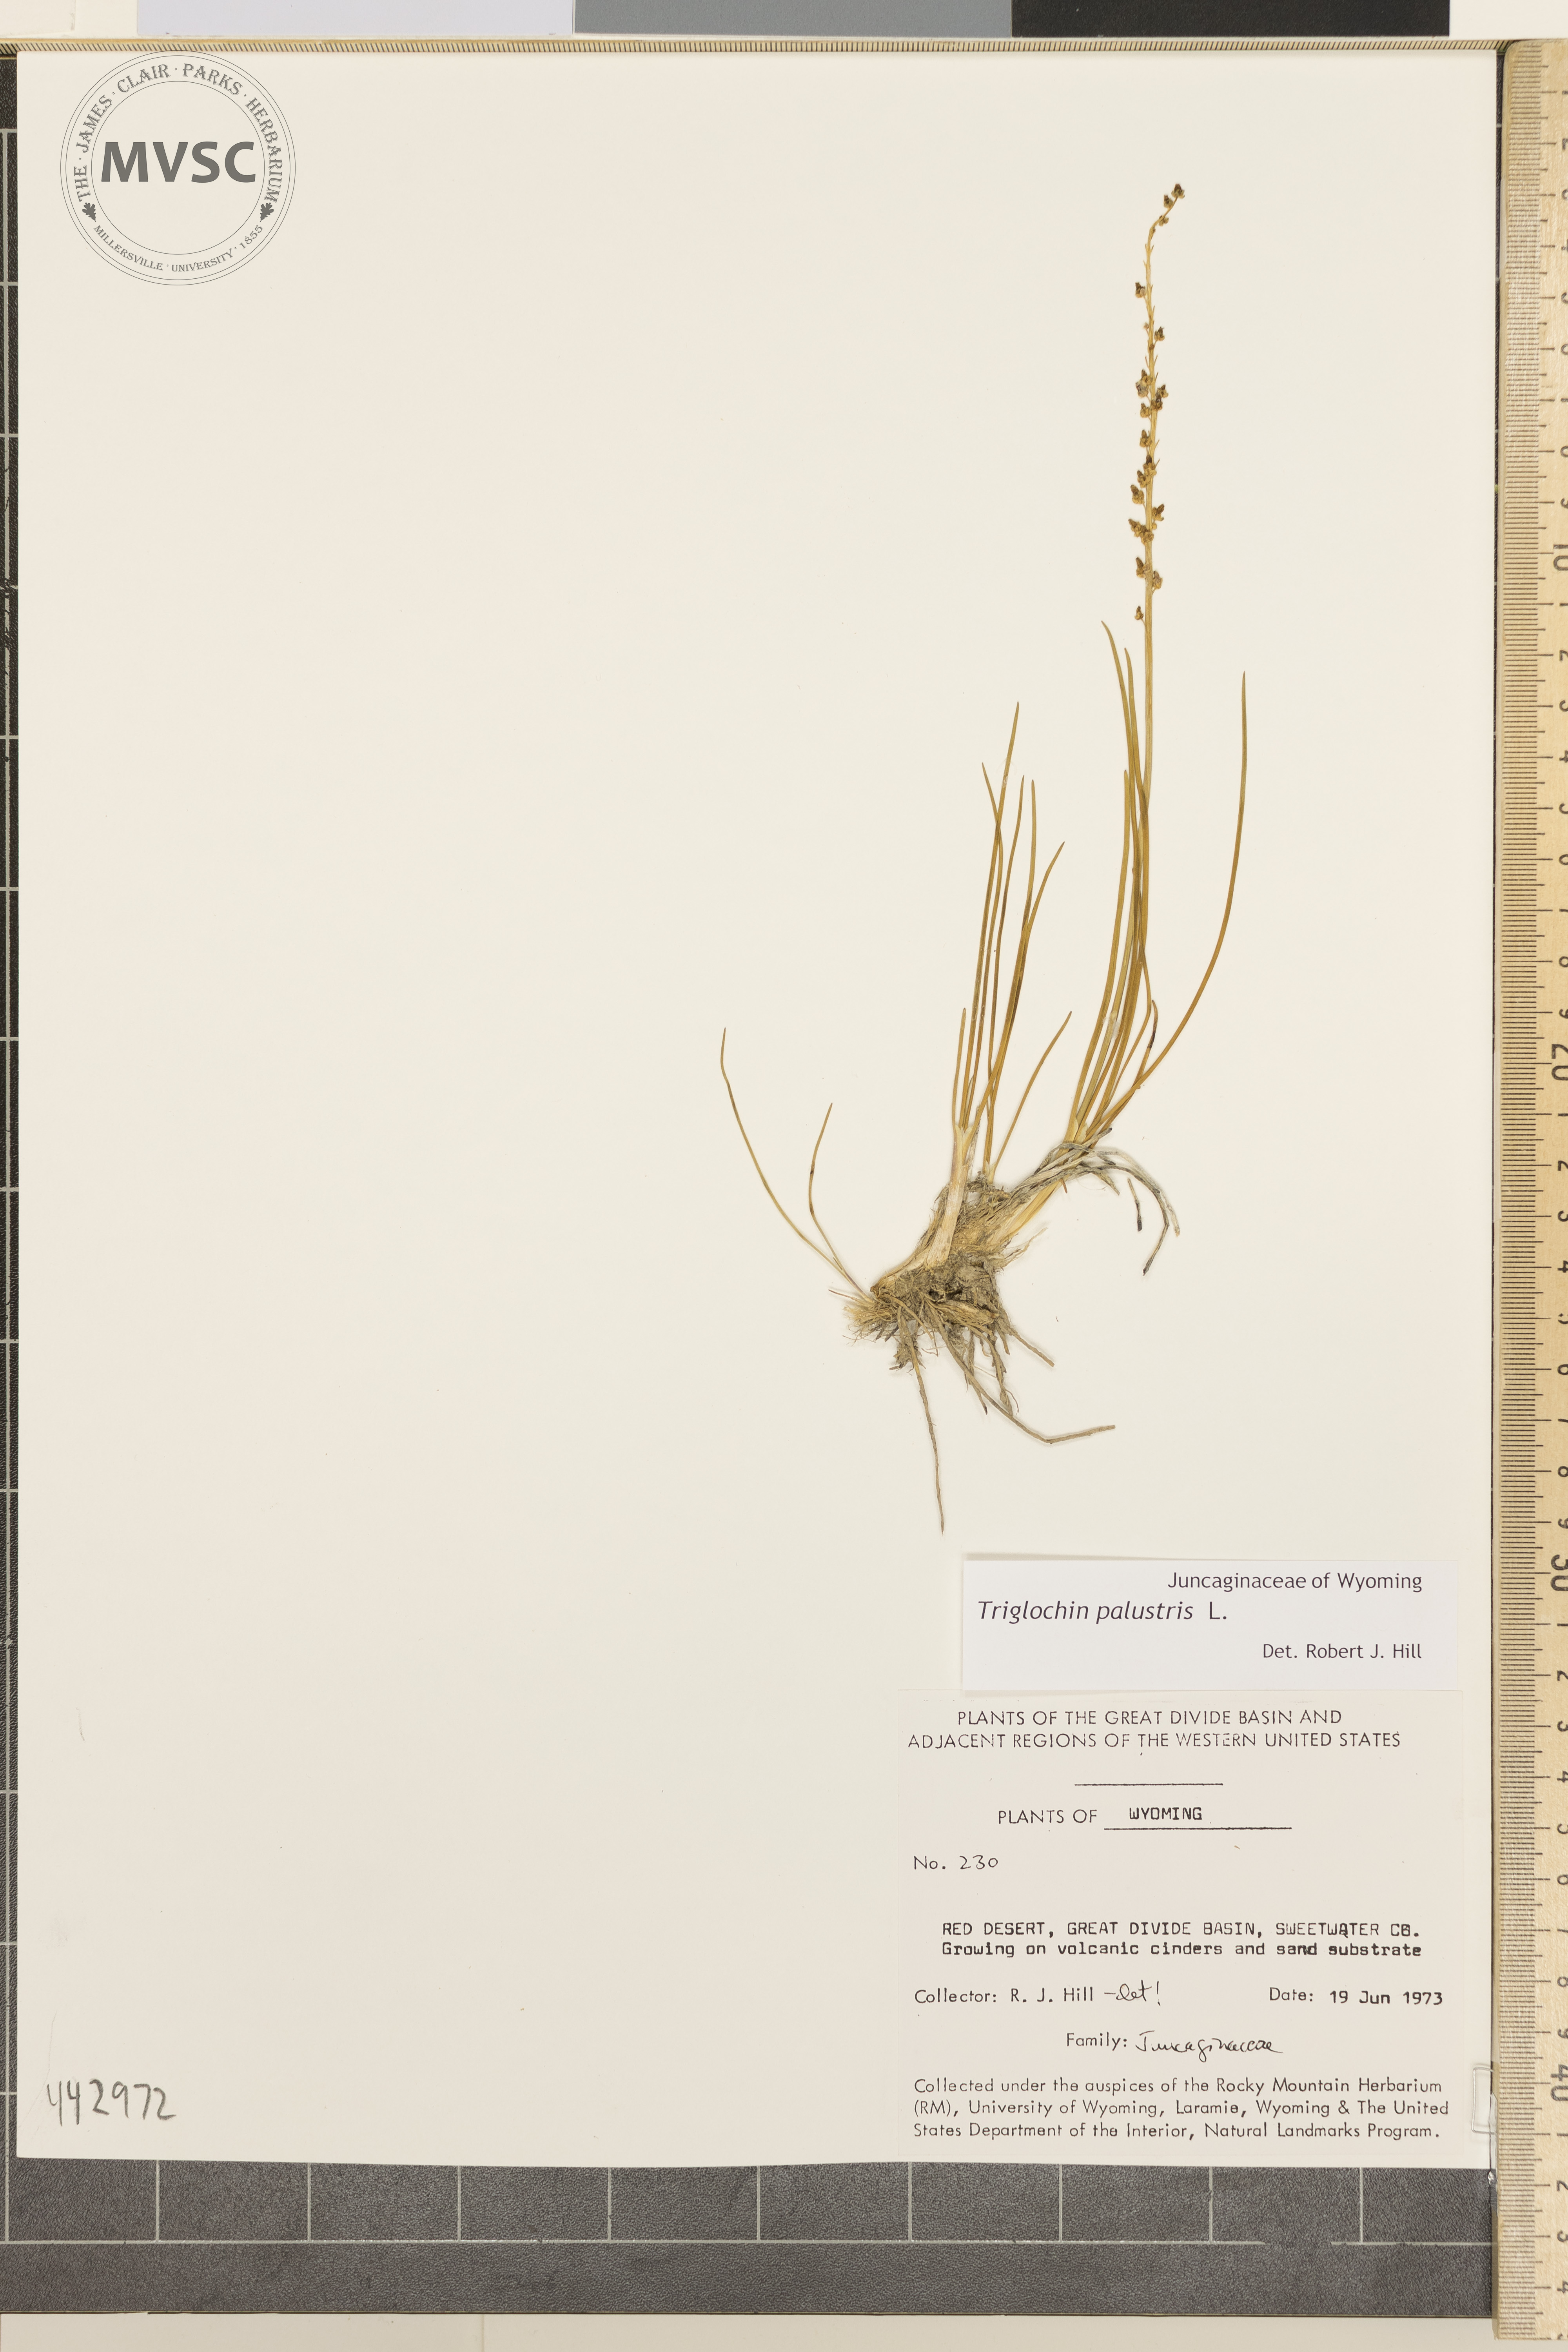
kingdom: Plantae
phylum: Tracheophyta
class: Liliopsida
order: Alismatales
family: Juncaginaceae
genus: Triglochin
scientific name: Triglochin palustris
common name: Marsh arrowgrass
